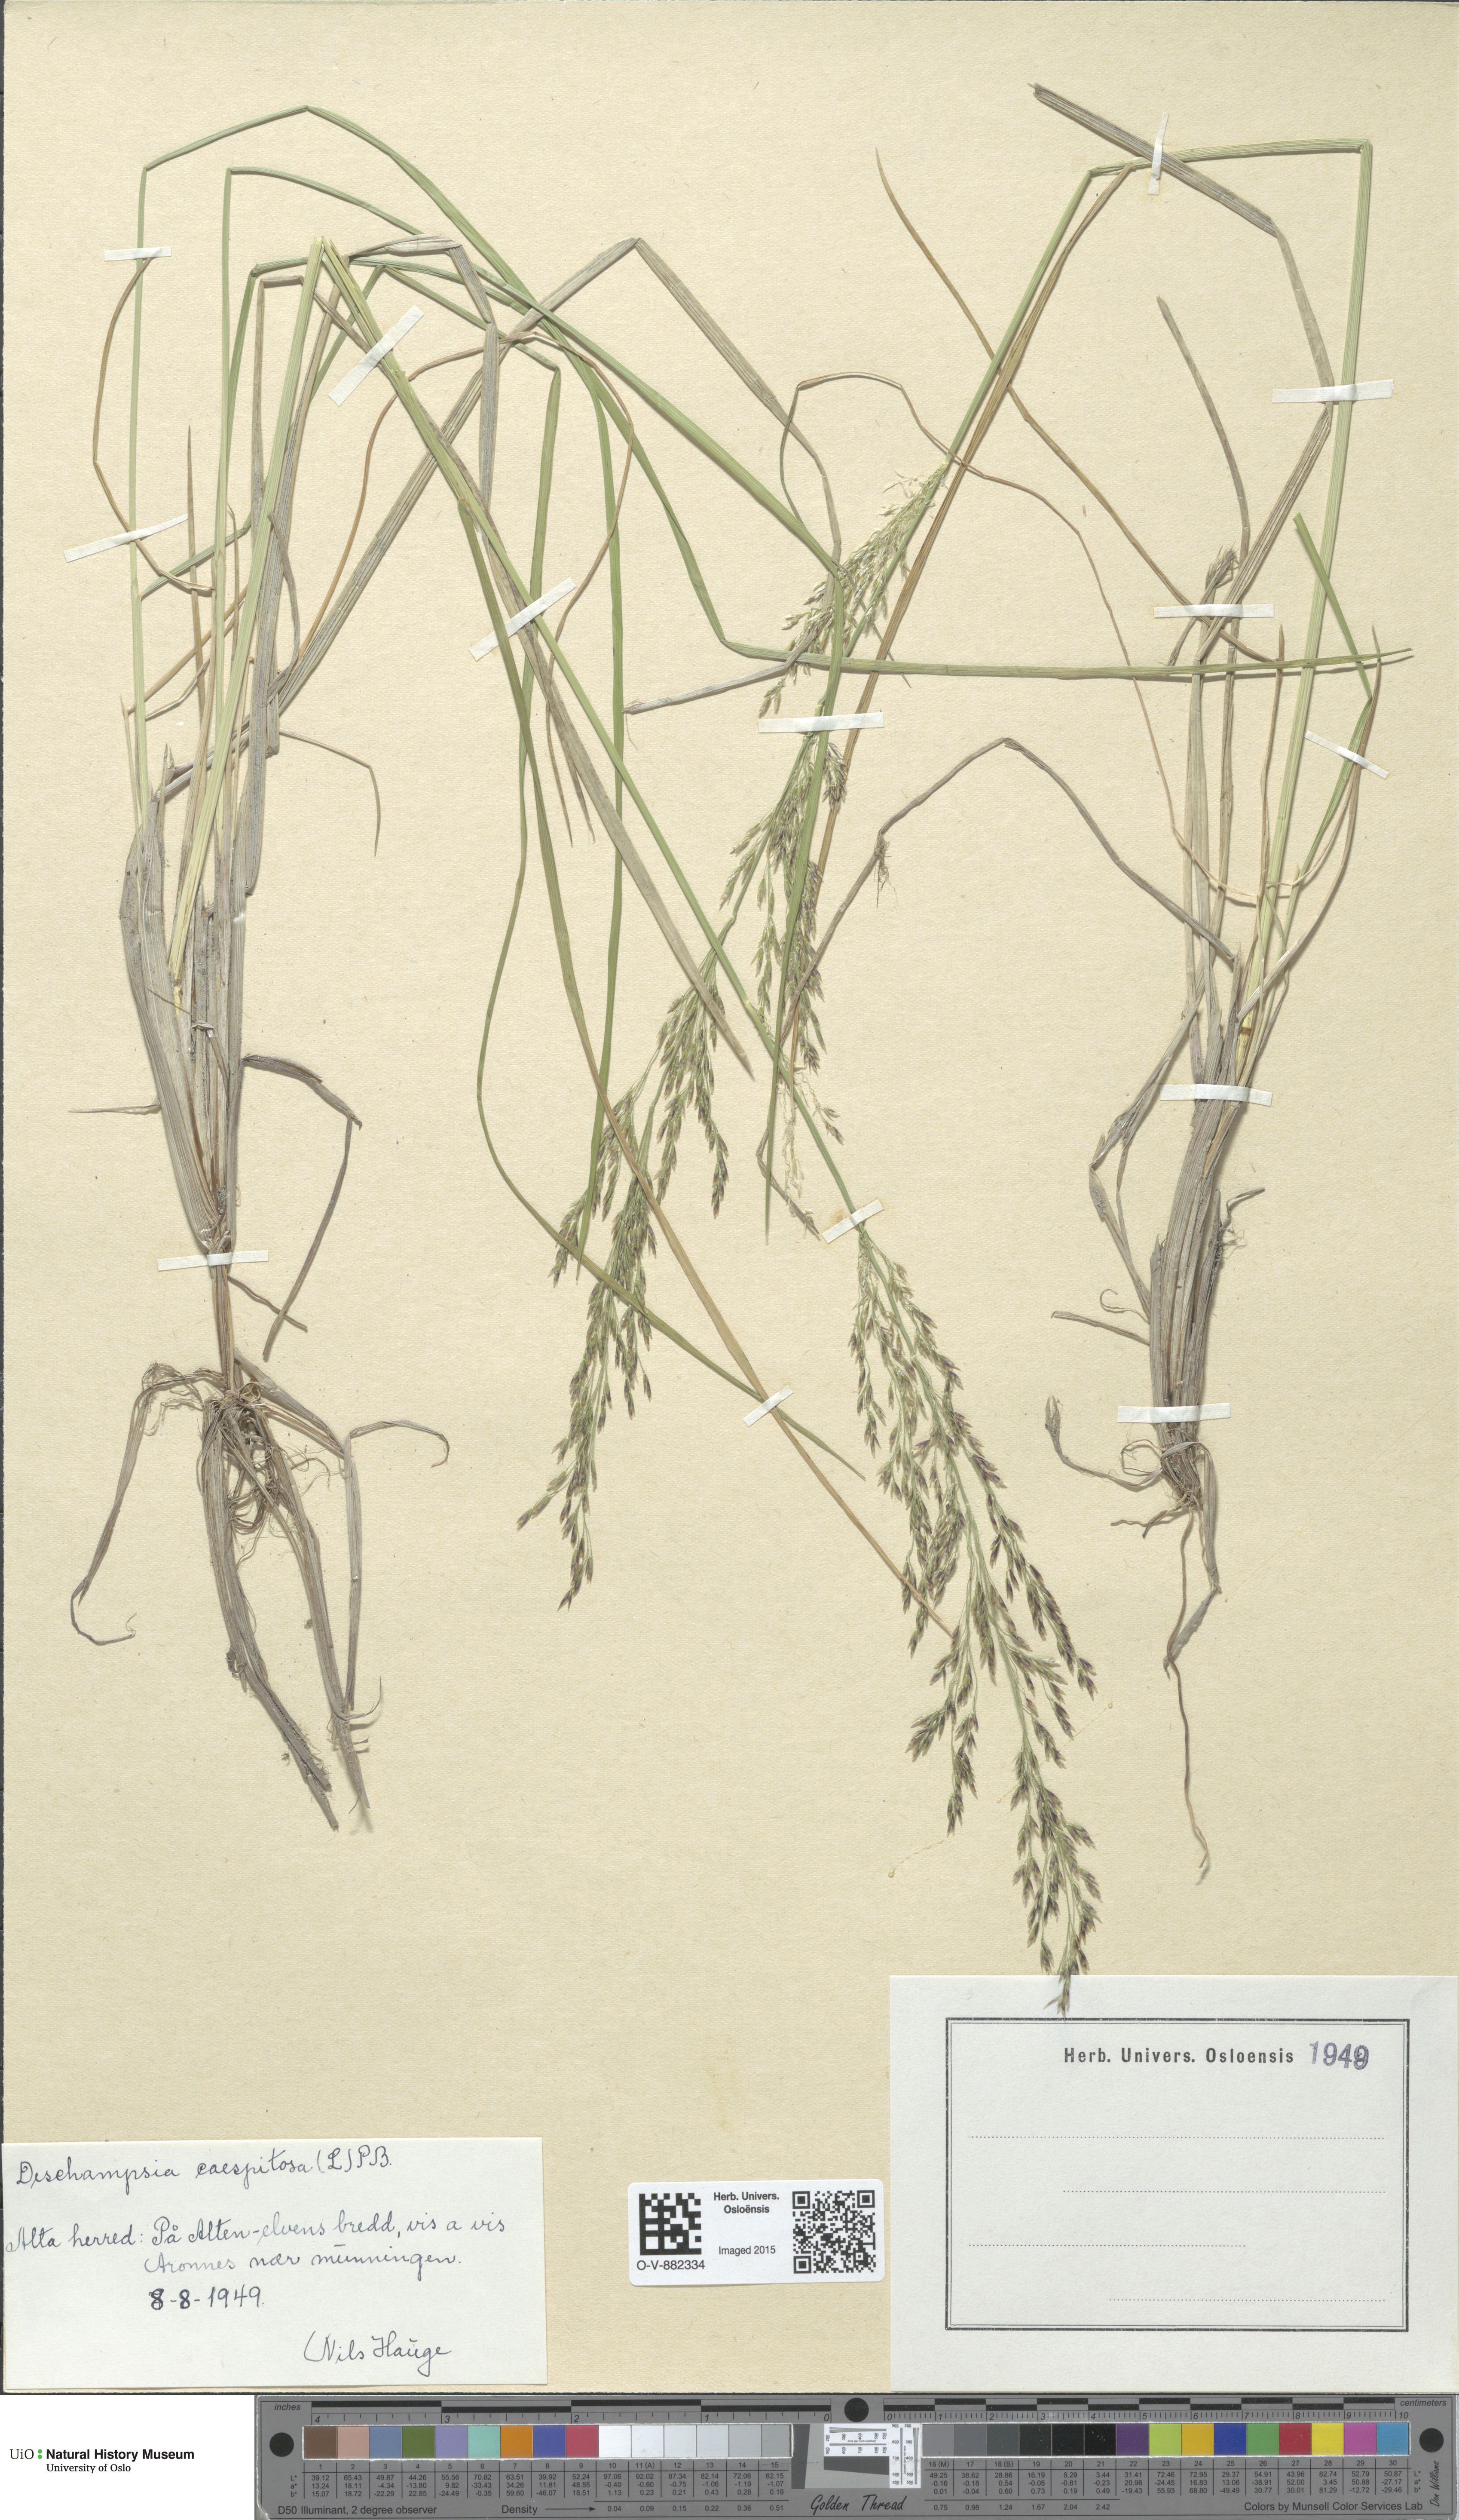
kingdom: Plantae
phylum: Tracheophyta
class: Liliopsida
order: Poales
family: Poaceae
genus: Deschampsia
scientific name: Deschampsia cespitosa
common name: Tufted hair-grass
